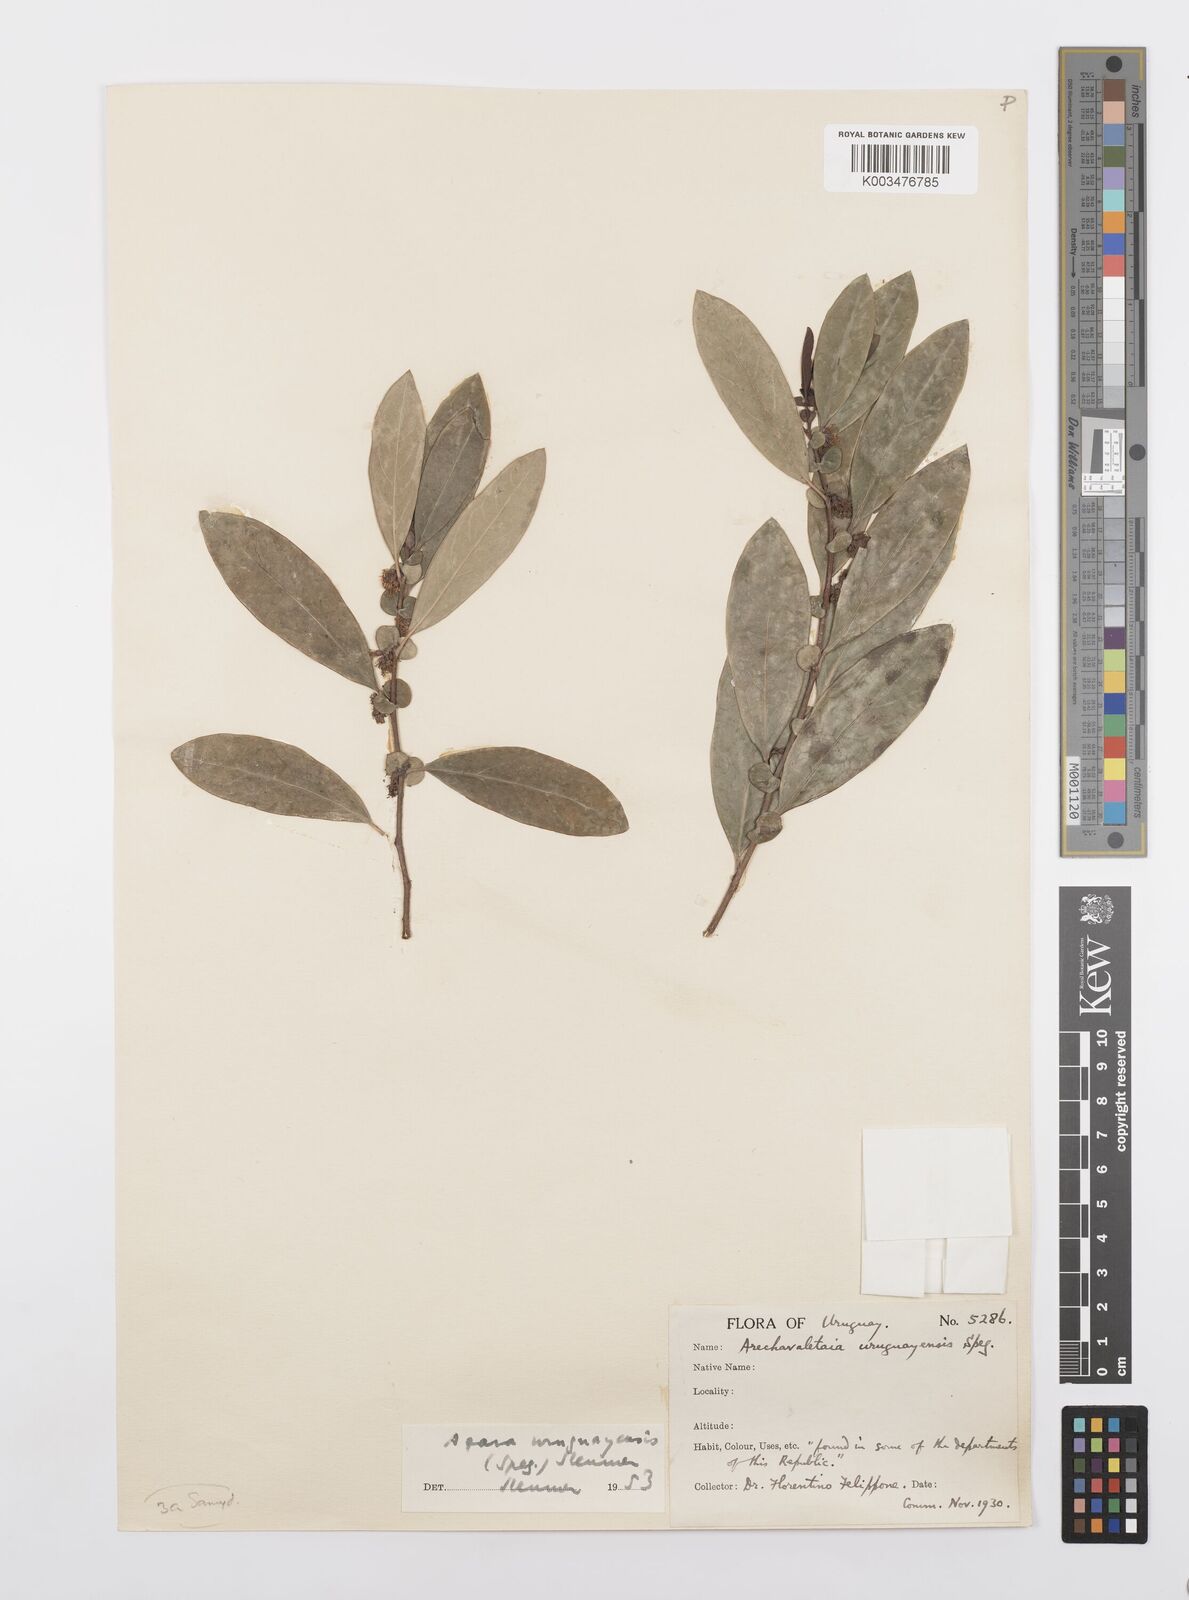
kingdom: Plantae
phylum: Tracheophyta
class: Magnoliopsida
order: Malpighiales
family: Salicaceae
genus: Azara
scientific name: Azara uruguayensis
